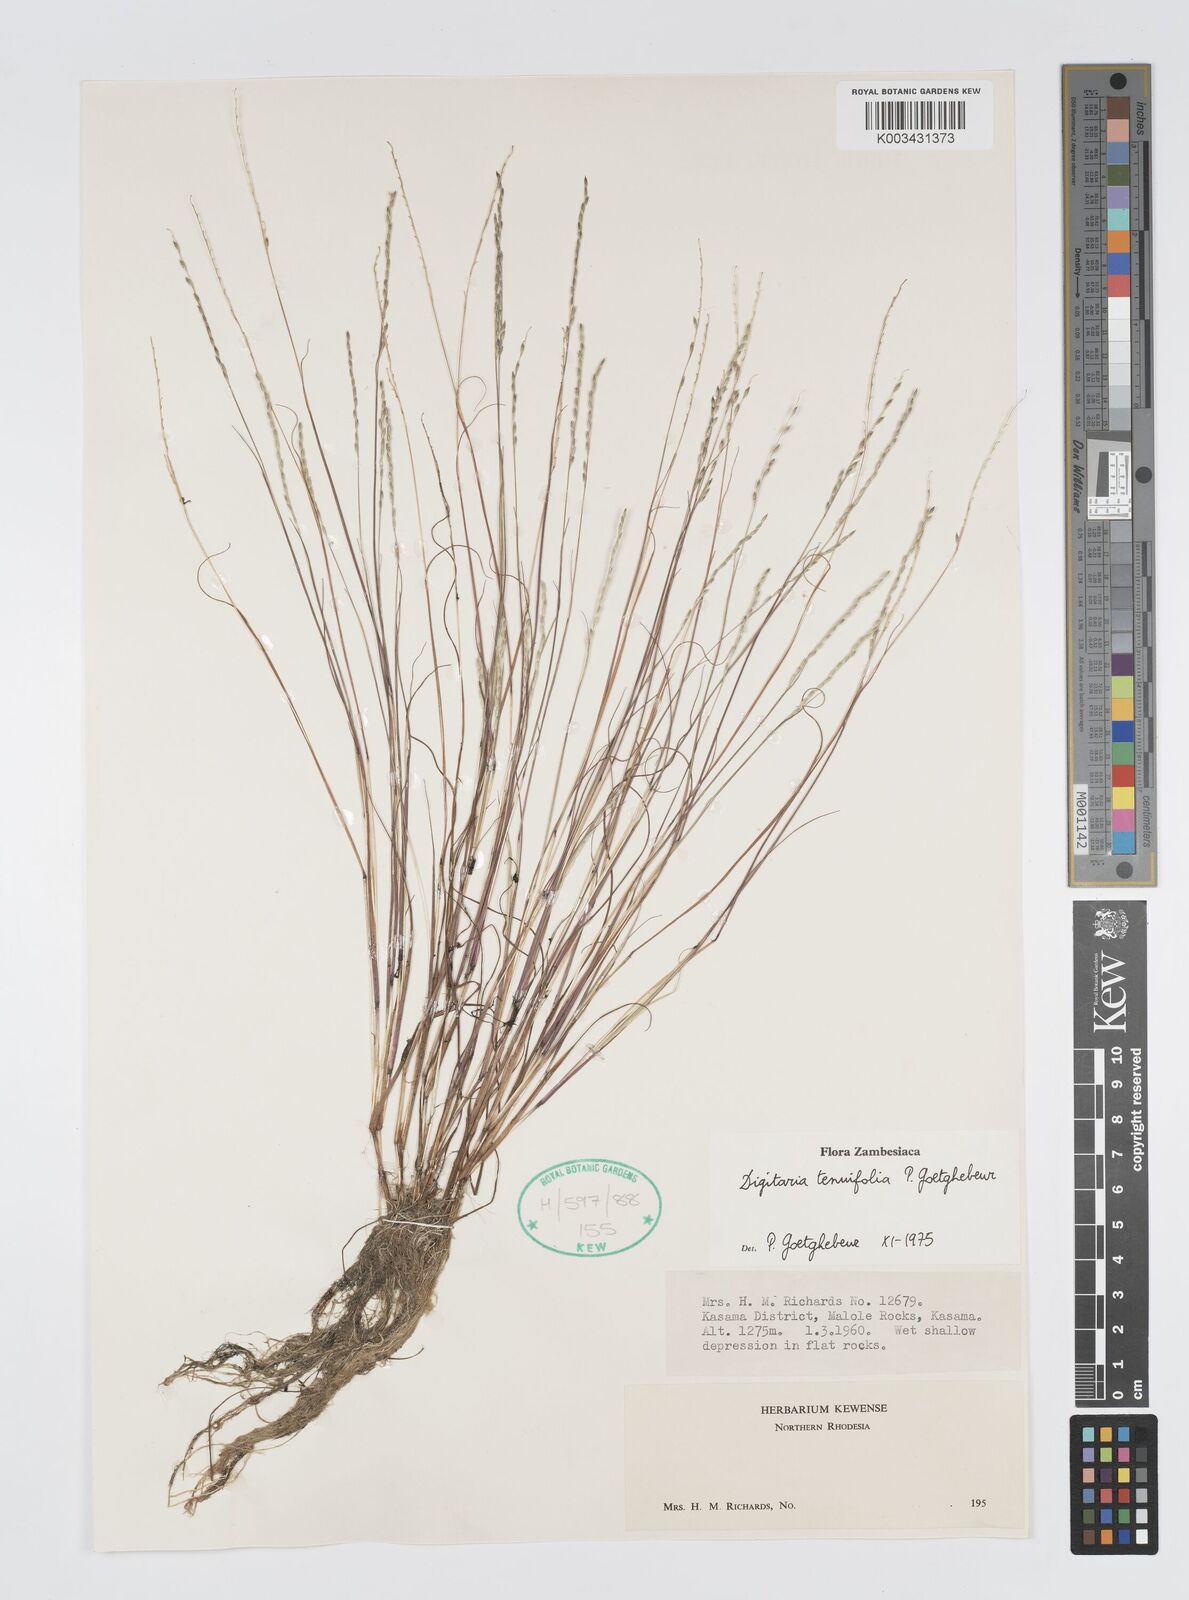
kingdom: Plantae
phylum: Tracheophyta
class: Liliopsida
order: Poales
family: Poaceae
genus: Digitaria
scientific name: Digitaria tenuifolia
